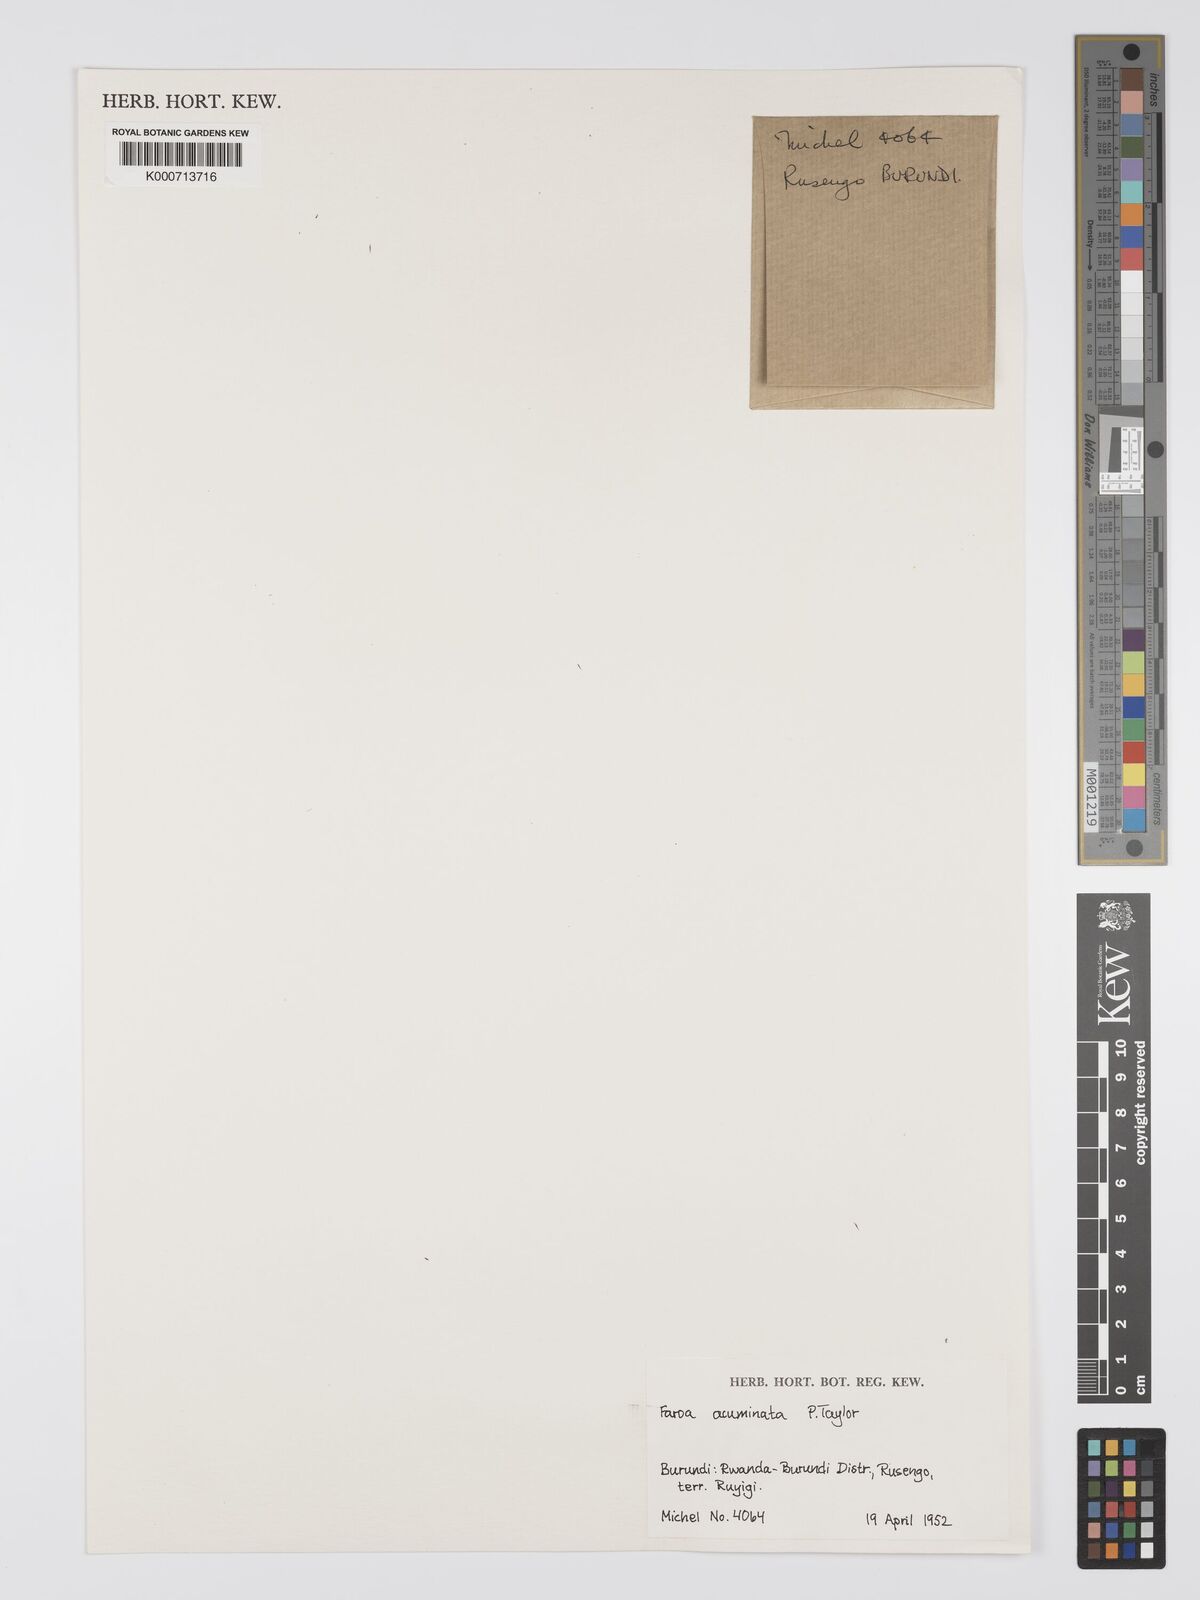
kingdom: Plantae
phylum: Tracheophyta
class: Magnoliopsida
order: Gentianales
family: Gentianaceae
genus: Faroa
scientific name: Faroa acuminata
